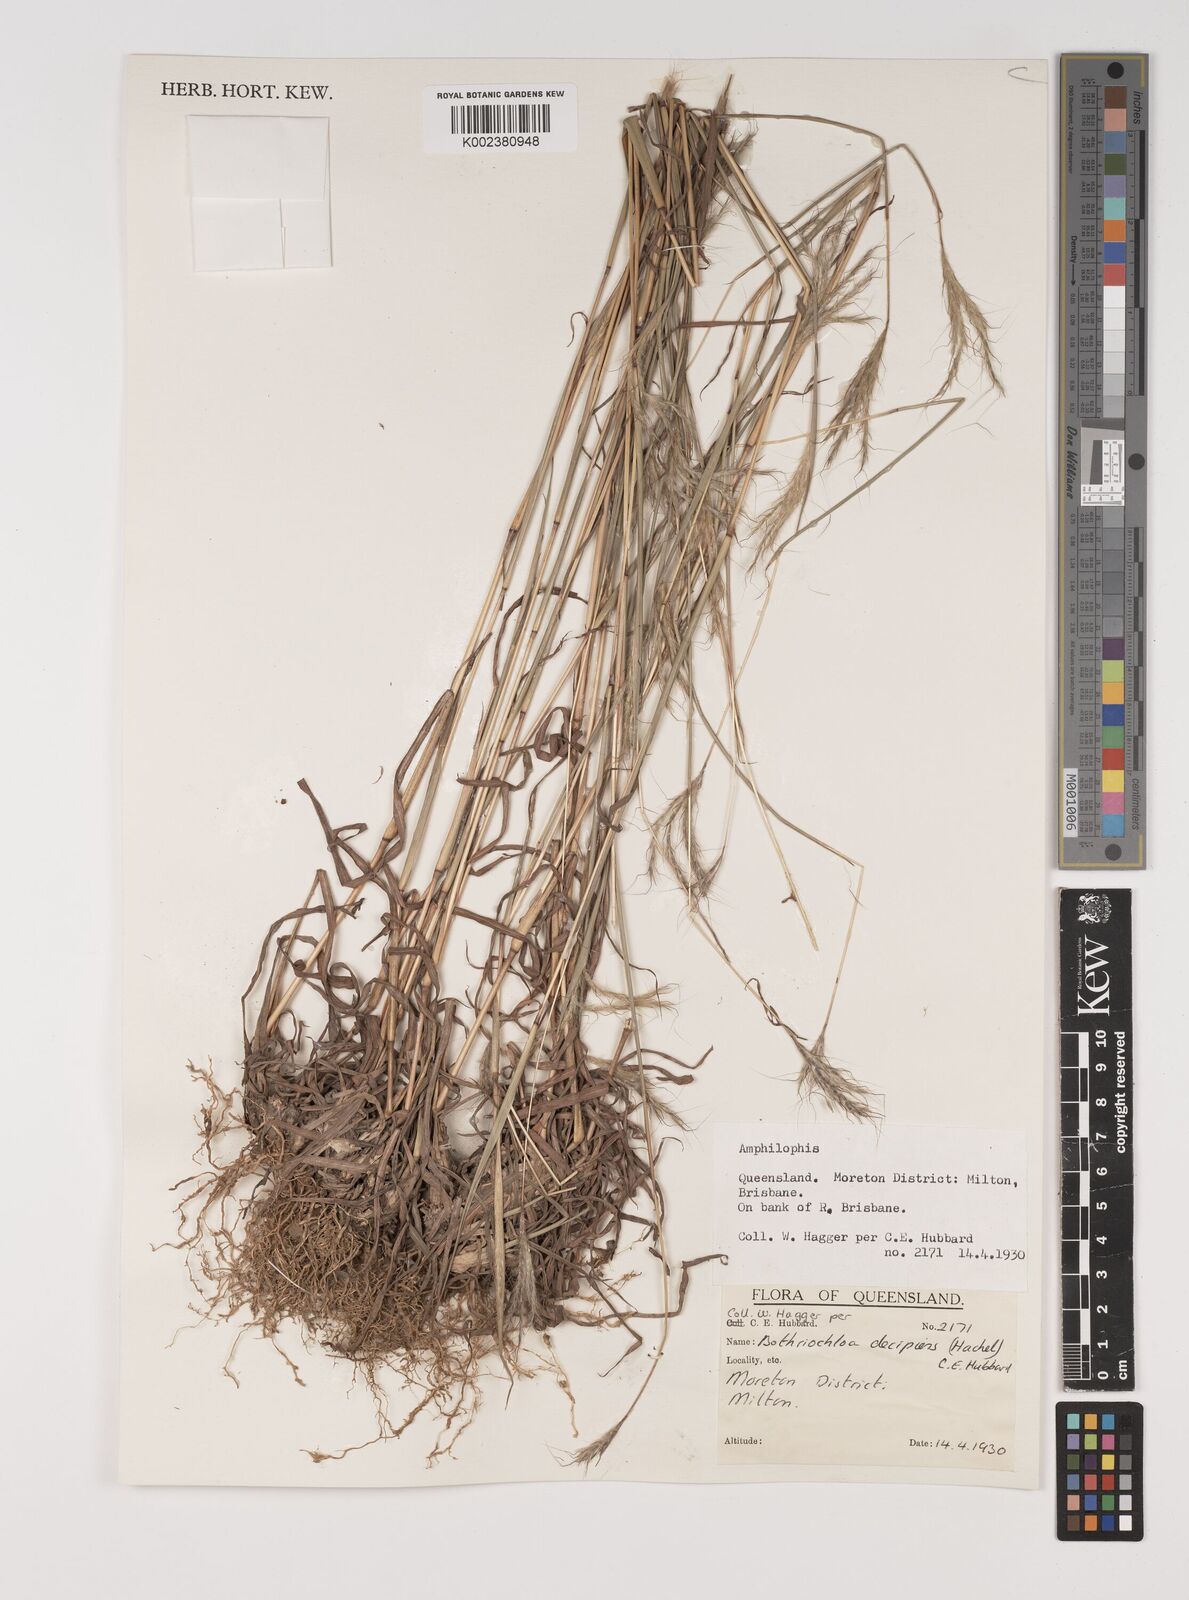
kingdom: Plantae
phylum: Tracheophyta
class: Liliopsida
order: Poales
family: Poaceae
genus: Bothriochloa
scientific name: Bothriochloa decipiens
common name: Pitted-bluegrass
